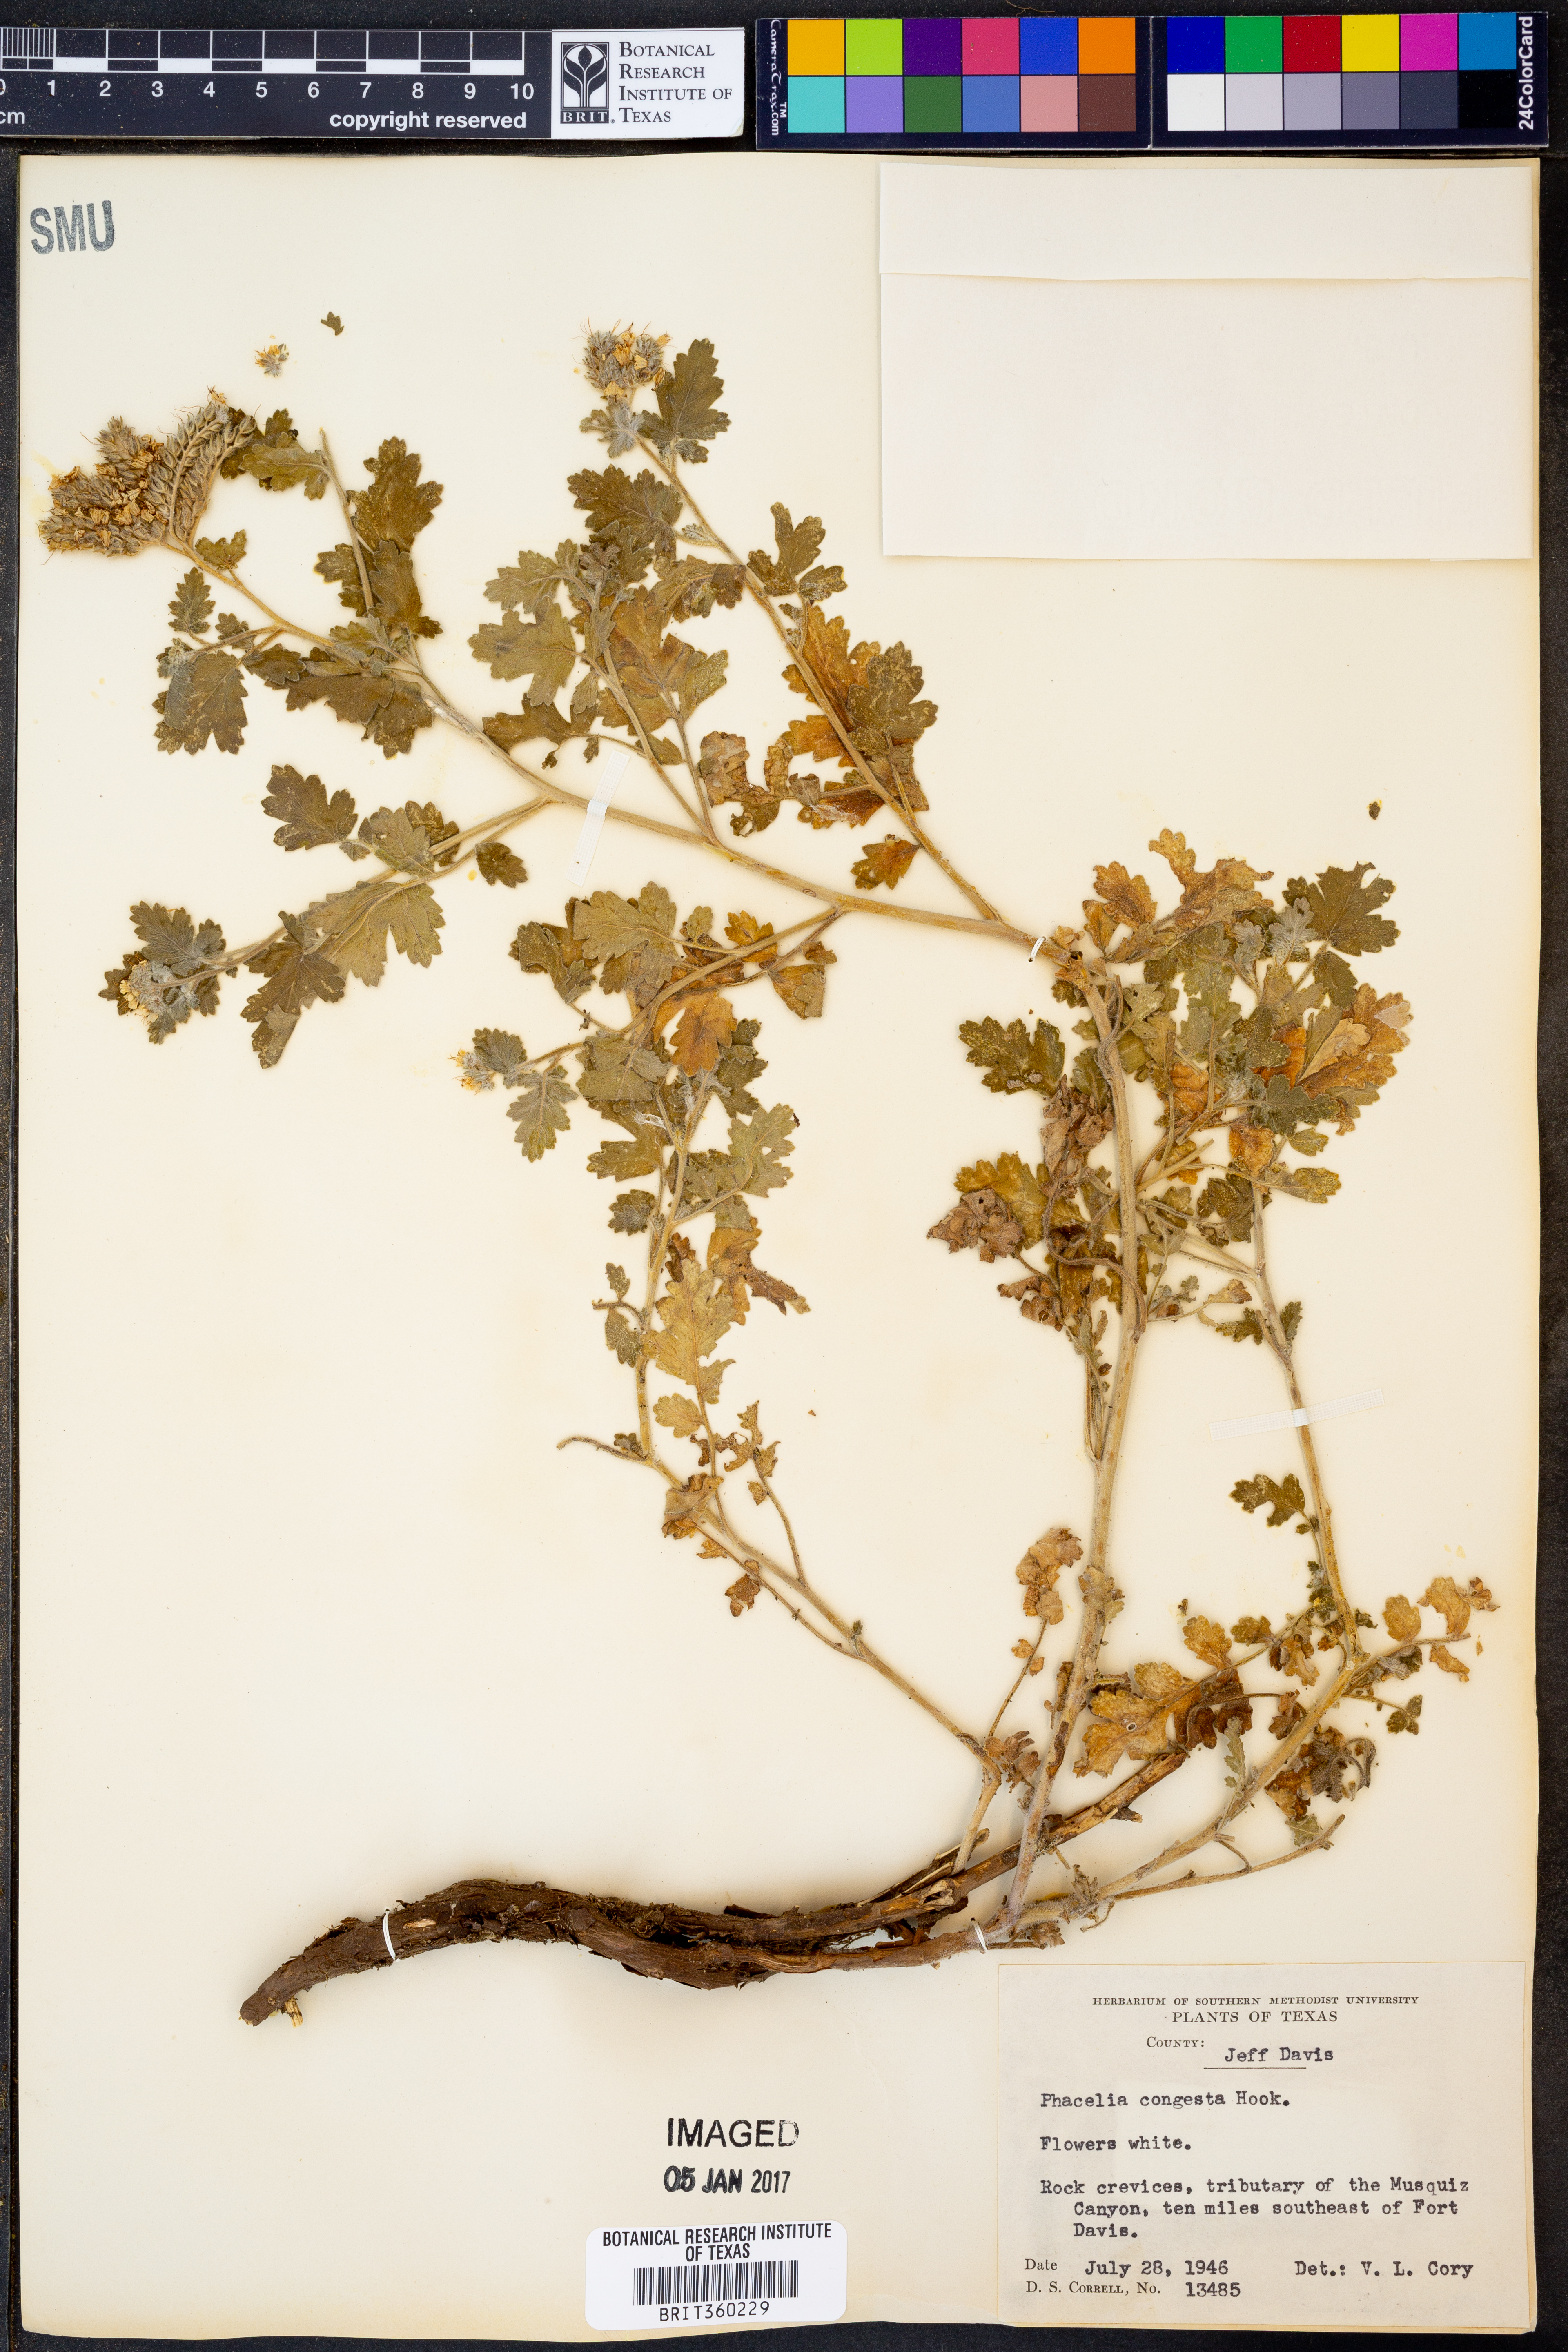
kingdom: Plantae
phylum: Tracheophyta
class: Magnoliopsida
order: Boraginales
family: Hydrophyllaceae
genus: Phacelia
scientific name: Phacelia congesta
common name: Blue curls
